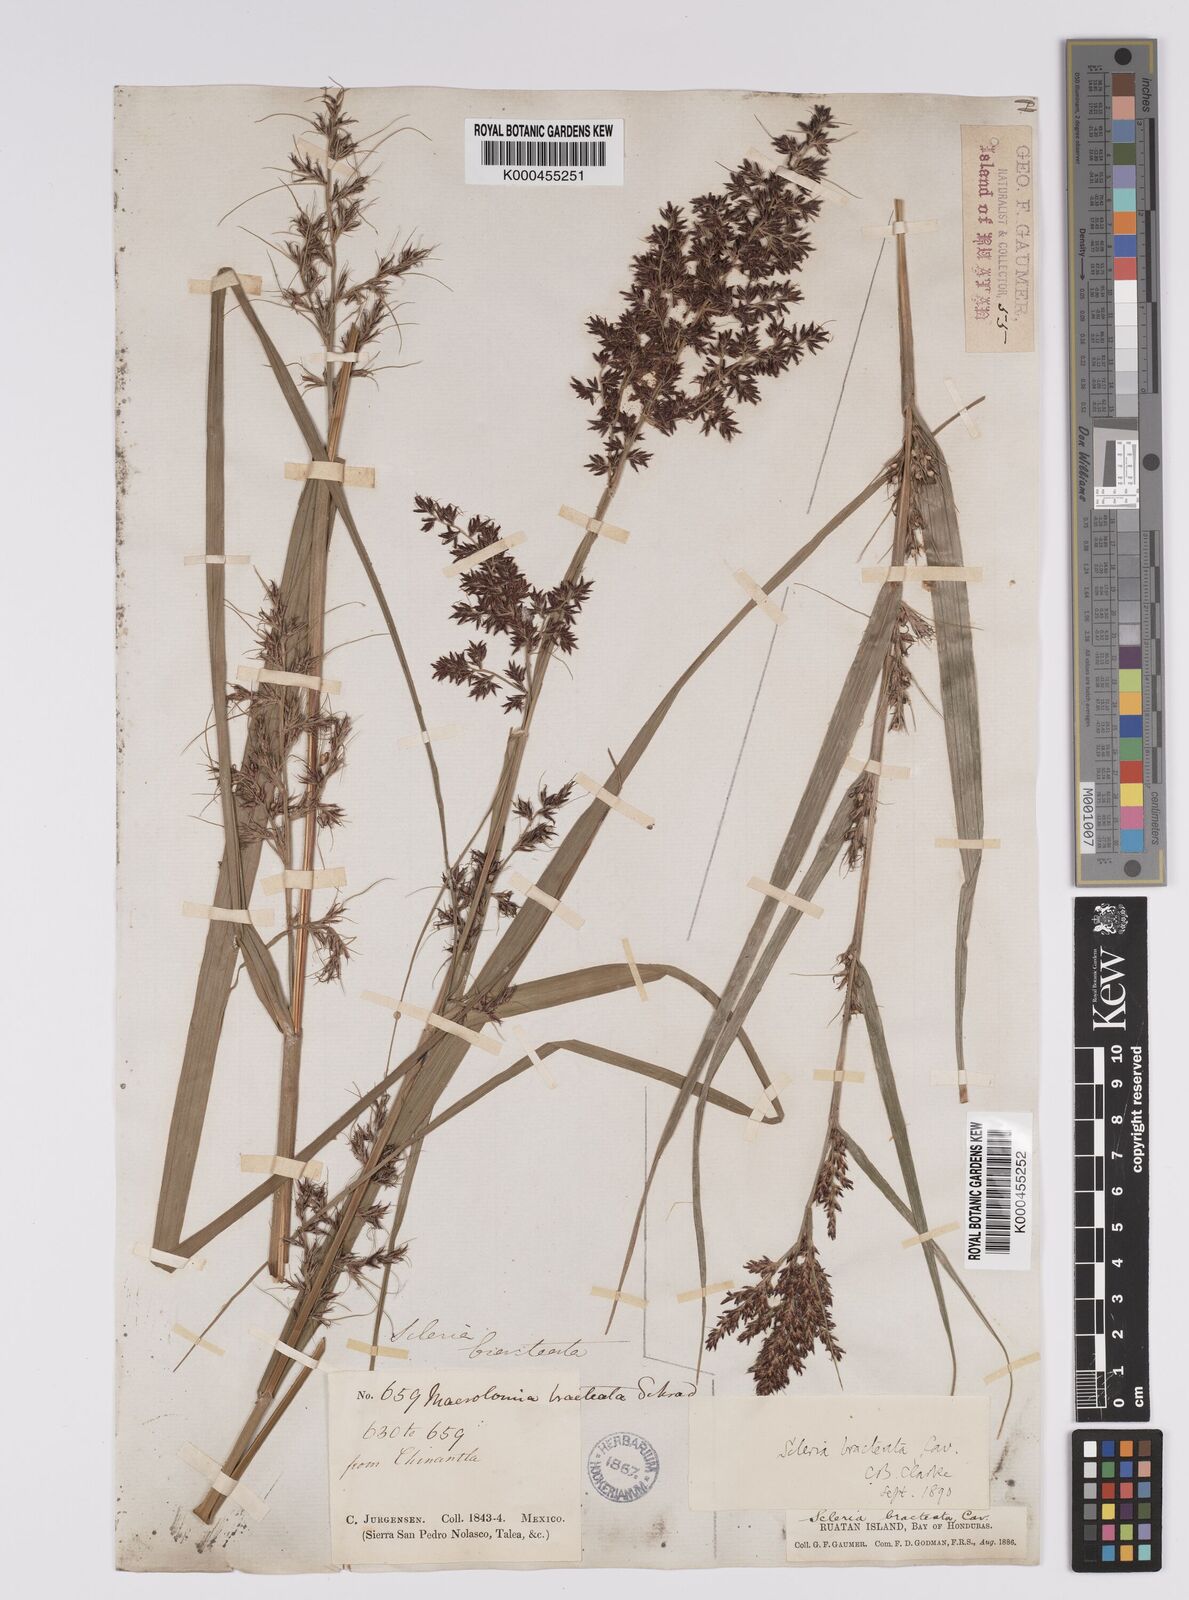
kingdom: Plantae
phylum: Tracheophyta
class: Liliopsida
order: Poales
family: Cyperaceae
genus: Scleria
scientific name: Scleria bracteata
